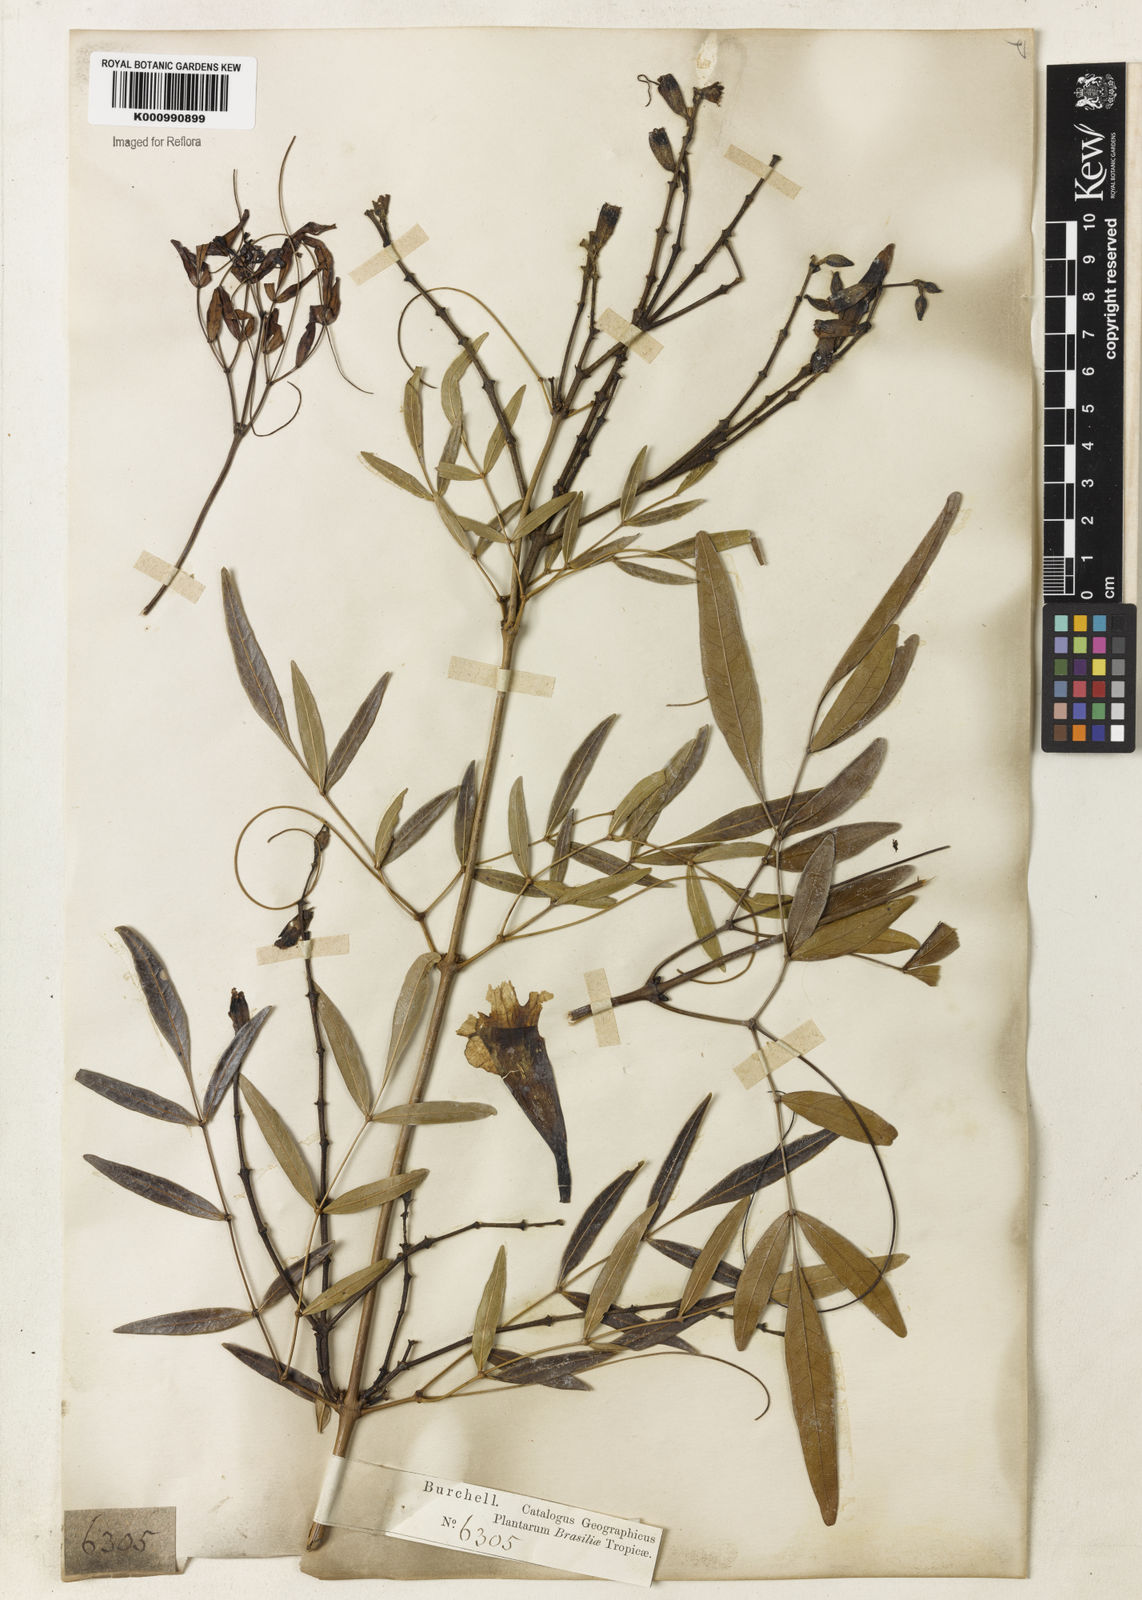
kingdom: Plantae
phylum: Tracheophyta
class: Magnoliopsida
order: Lamiales
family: Bignoniaceae
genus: Adenocalymma
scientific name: Adenocalymma nodosum
